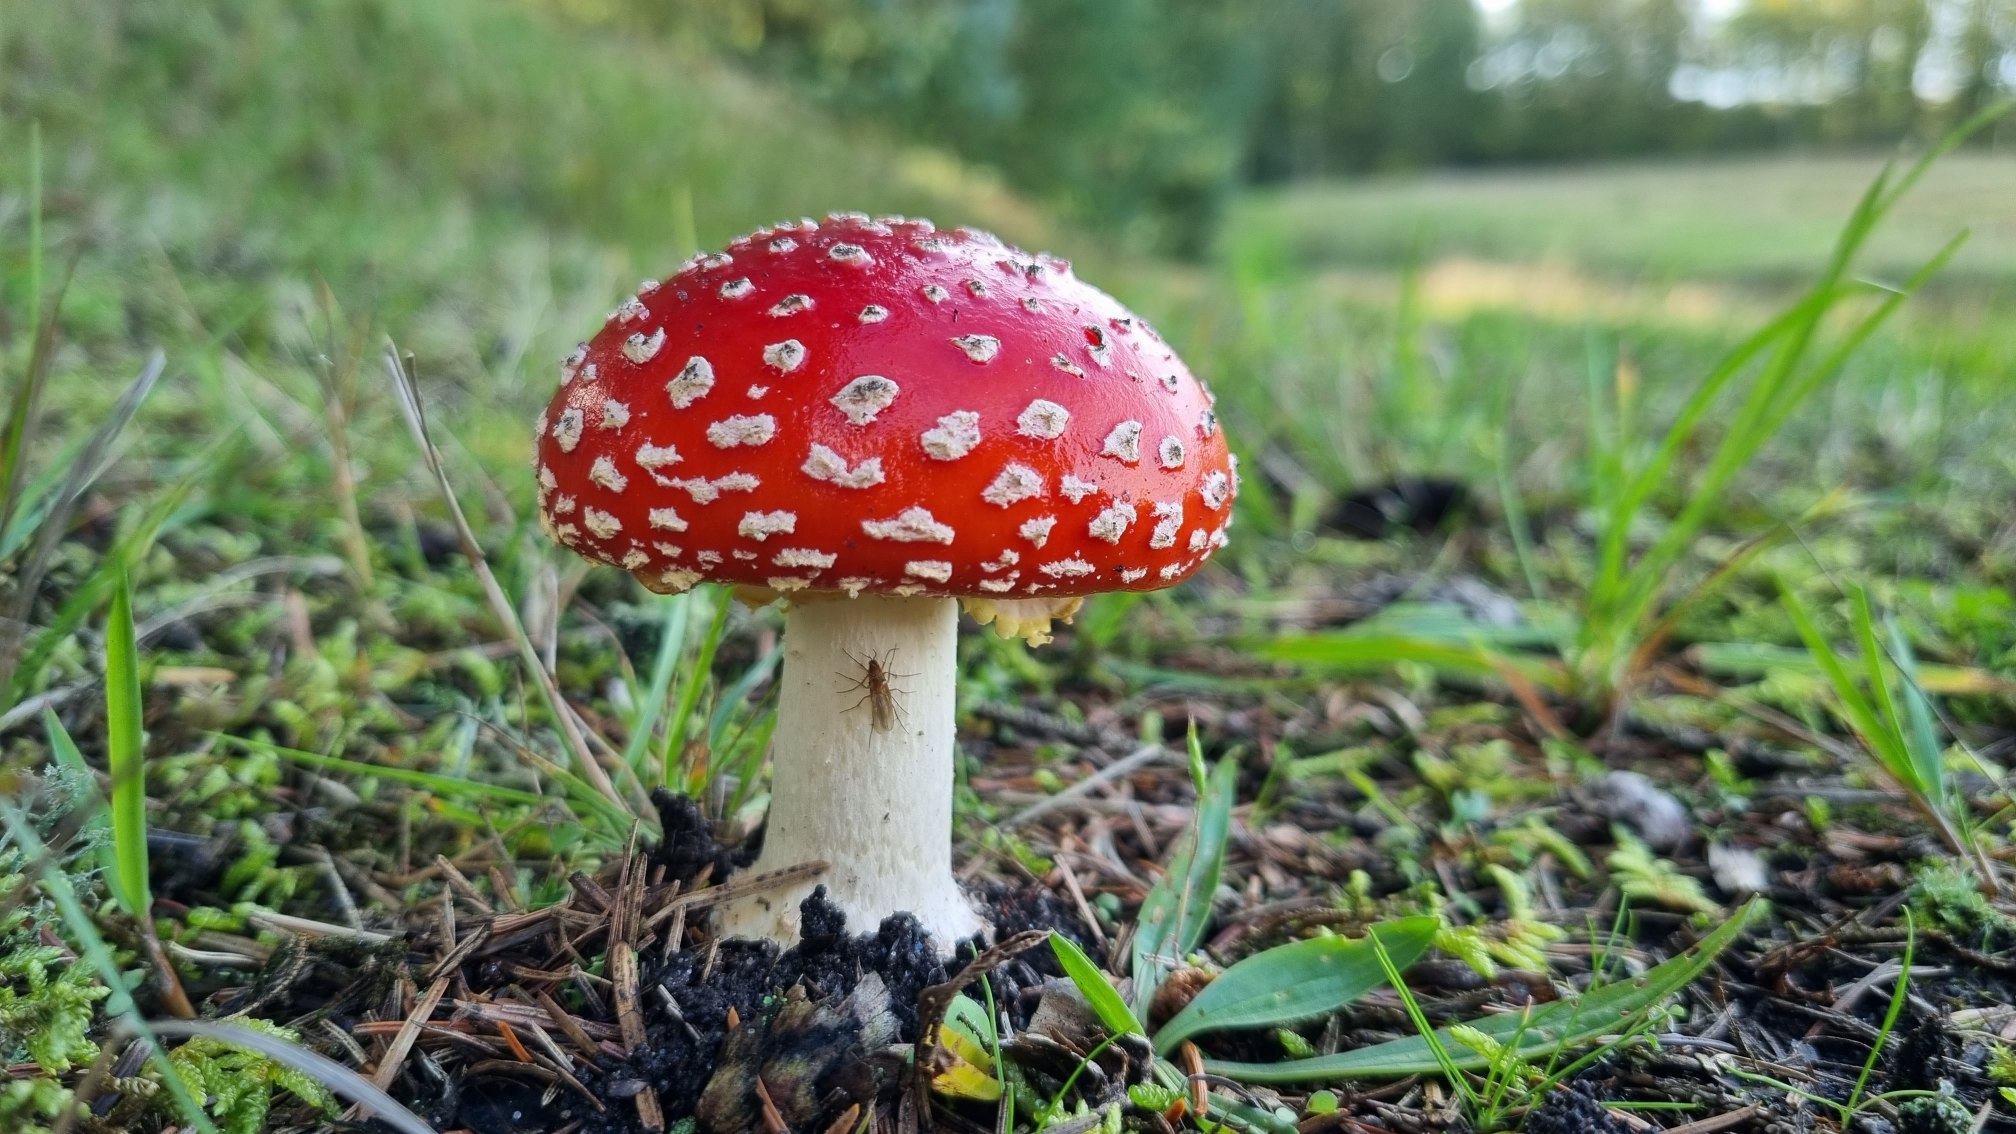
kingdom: Fungi
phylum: Basidiomycota
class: Agaricomycetes
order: Agaricales
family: Amanitaceae
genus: Amanita
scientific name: Amanita muscaria
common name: Rød fluesvamp
